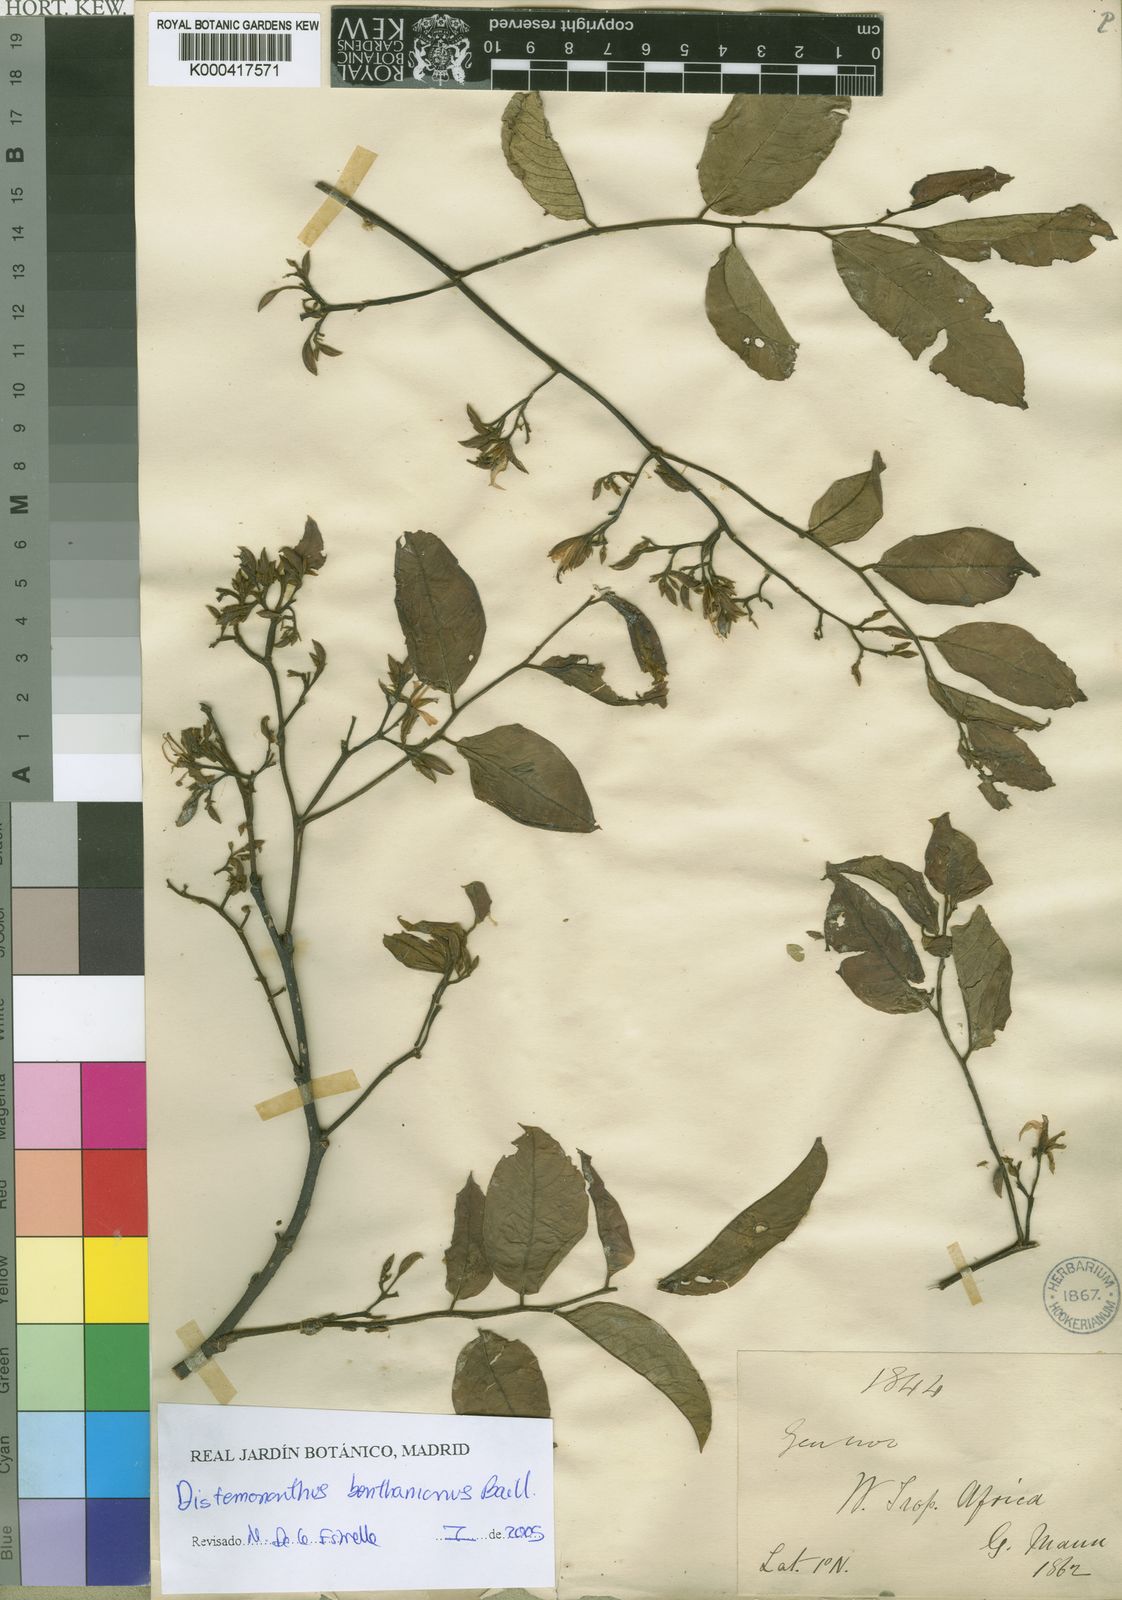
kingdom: Plantae
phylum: Tracheophyta
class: Magnoliopsida
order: Fabales
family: Fabaceae
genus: Distemonanthus
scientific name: Distemonanthus benthamianus
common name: Yellow satinwood
